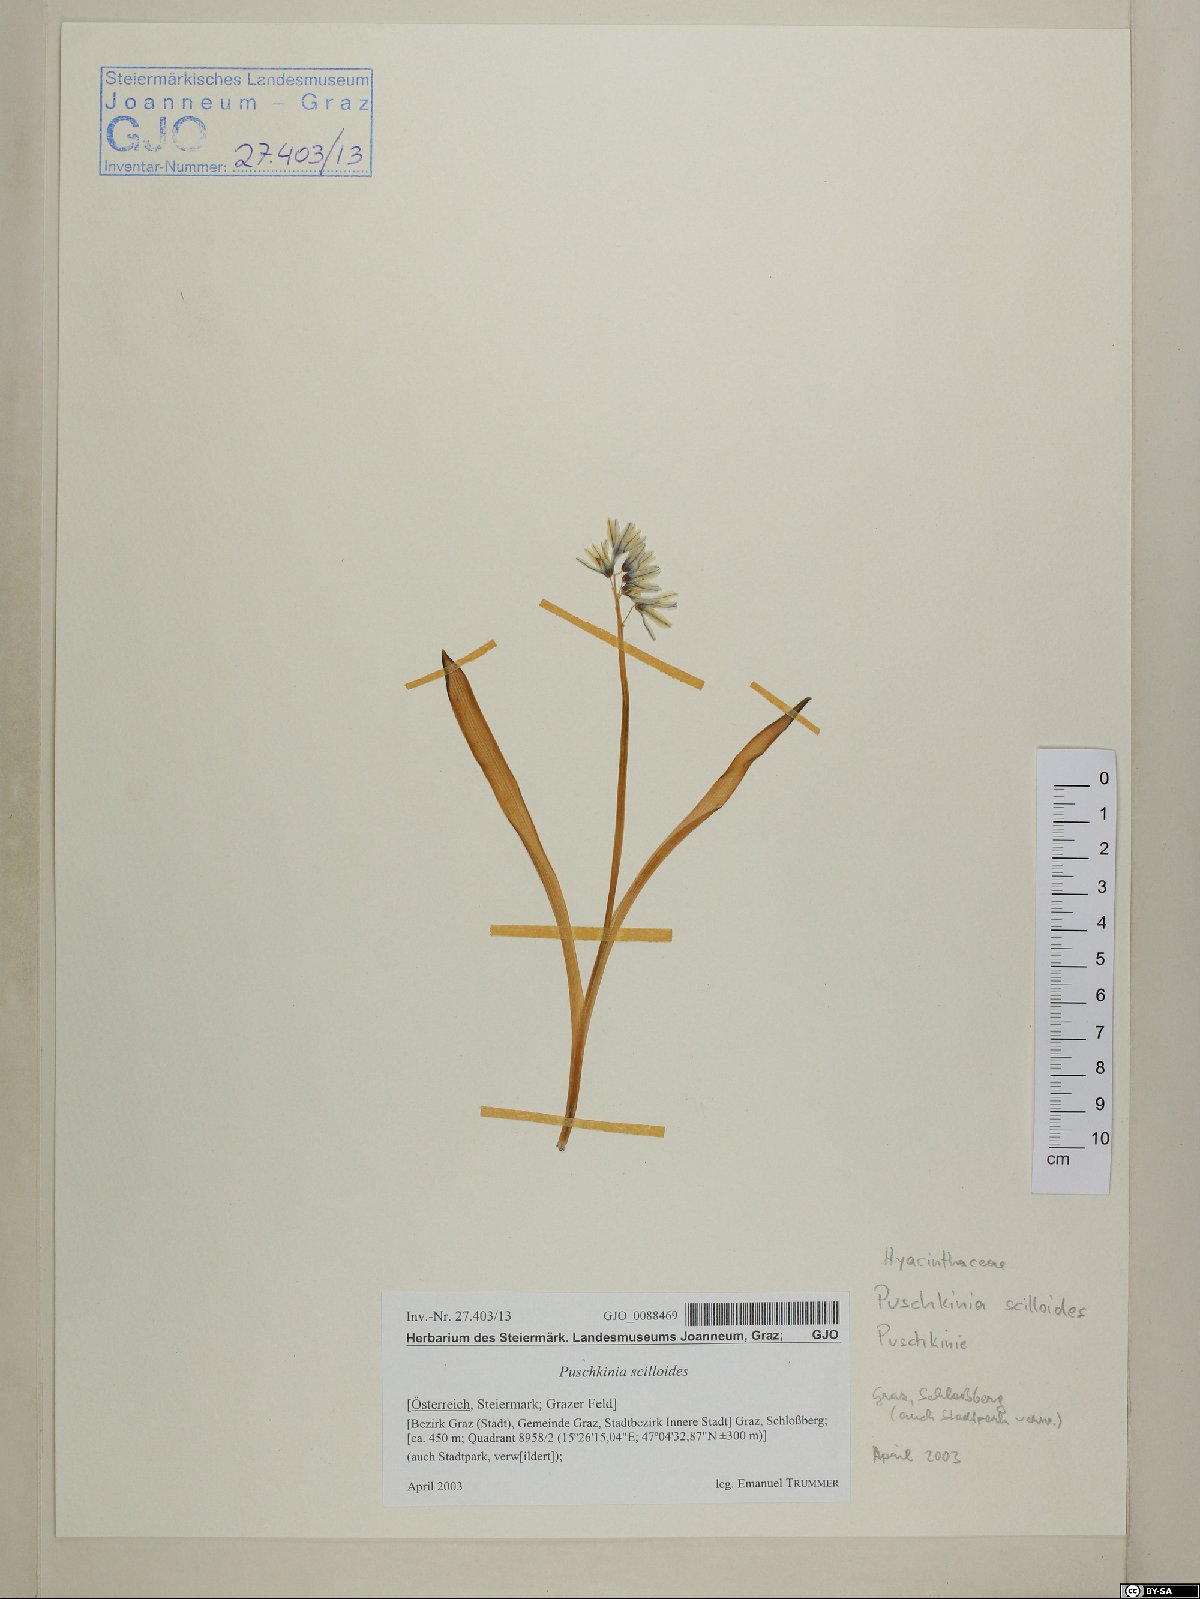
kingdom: Plantae
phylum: Tracheophyta
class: Liliopsida
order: Asparagales
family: Asparagaceae
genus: Puschkinia
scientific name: Puschkinia scilloides
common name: Striped squill
